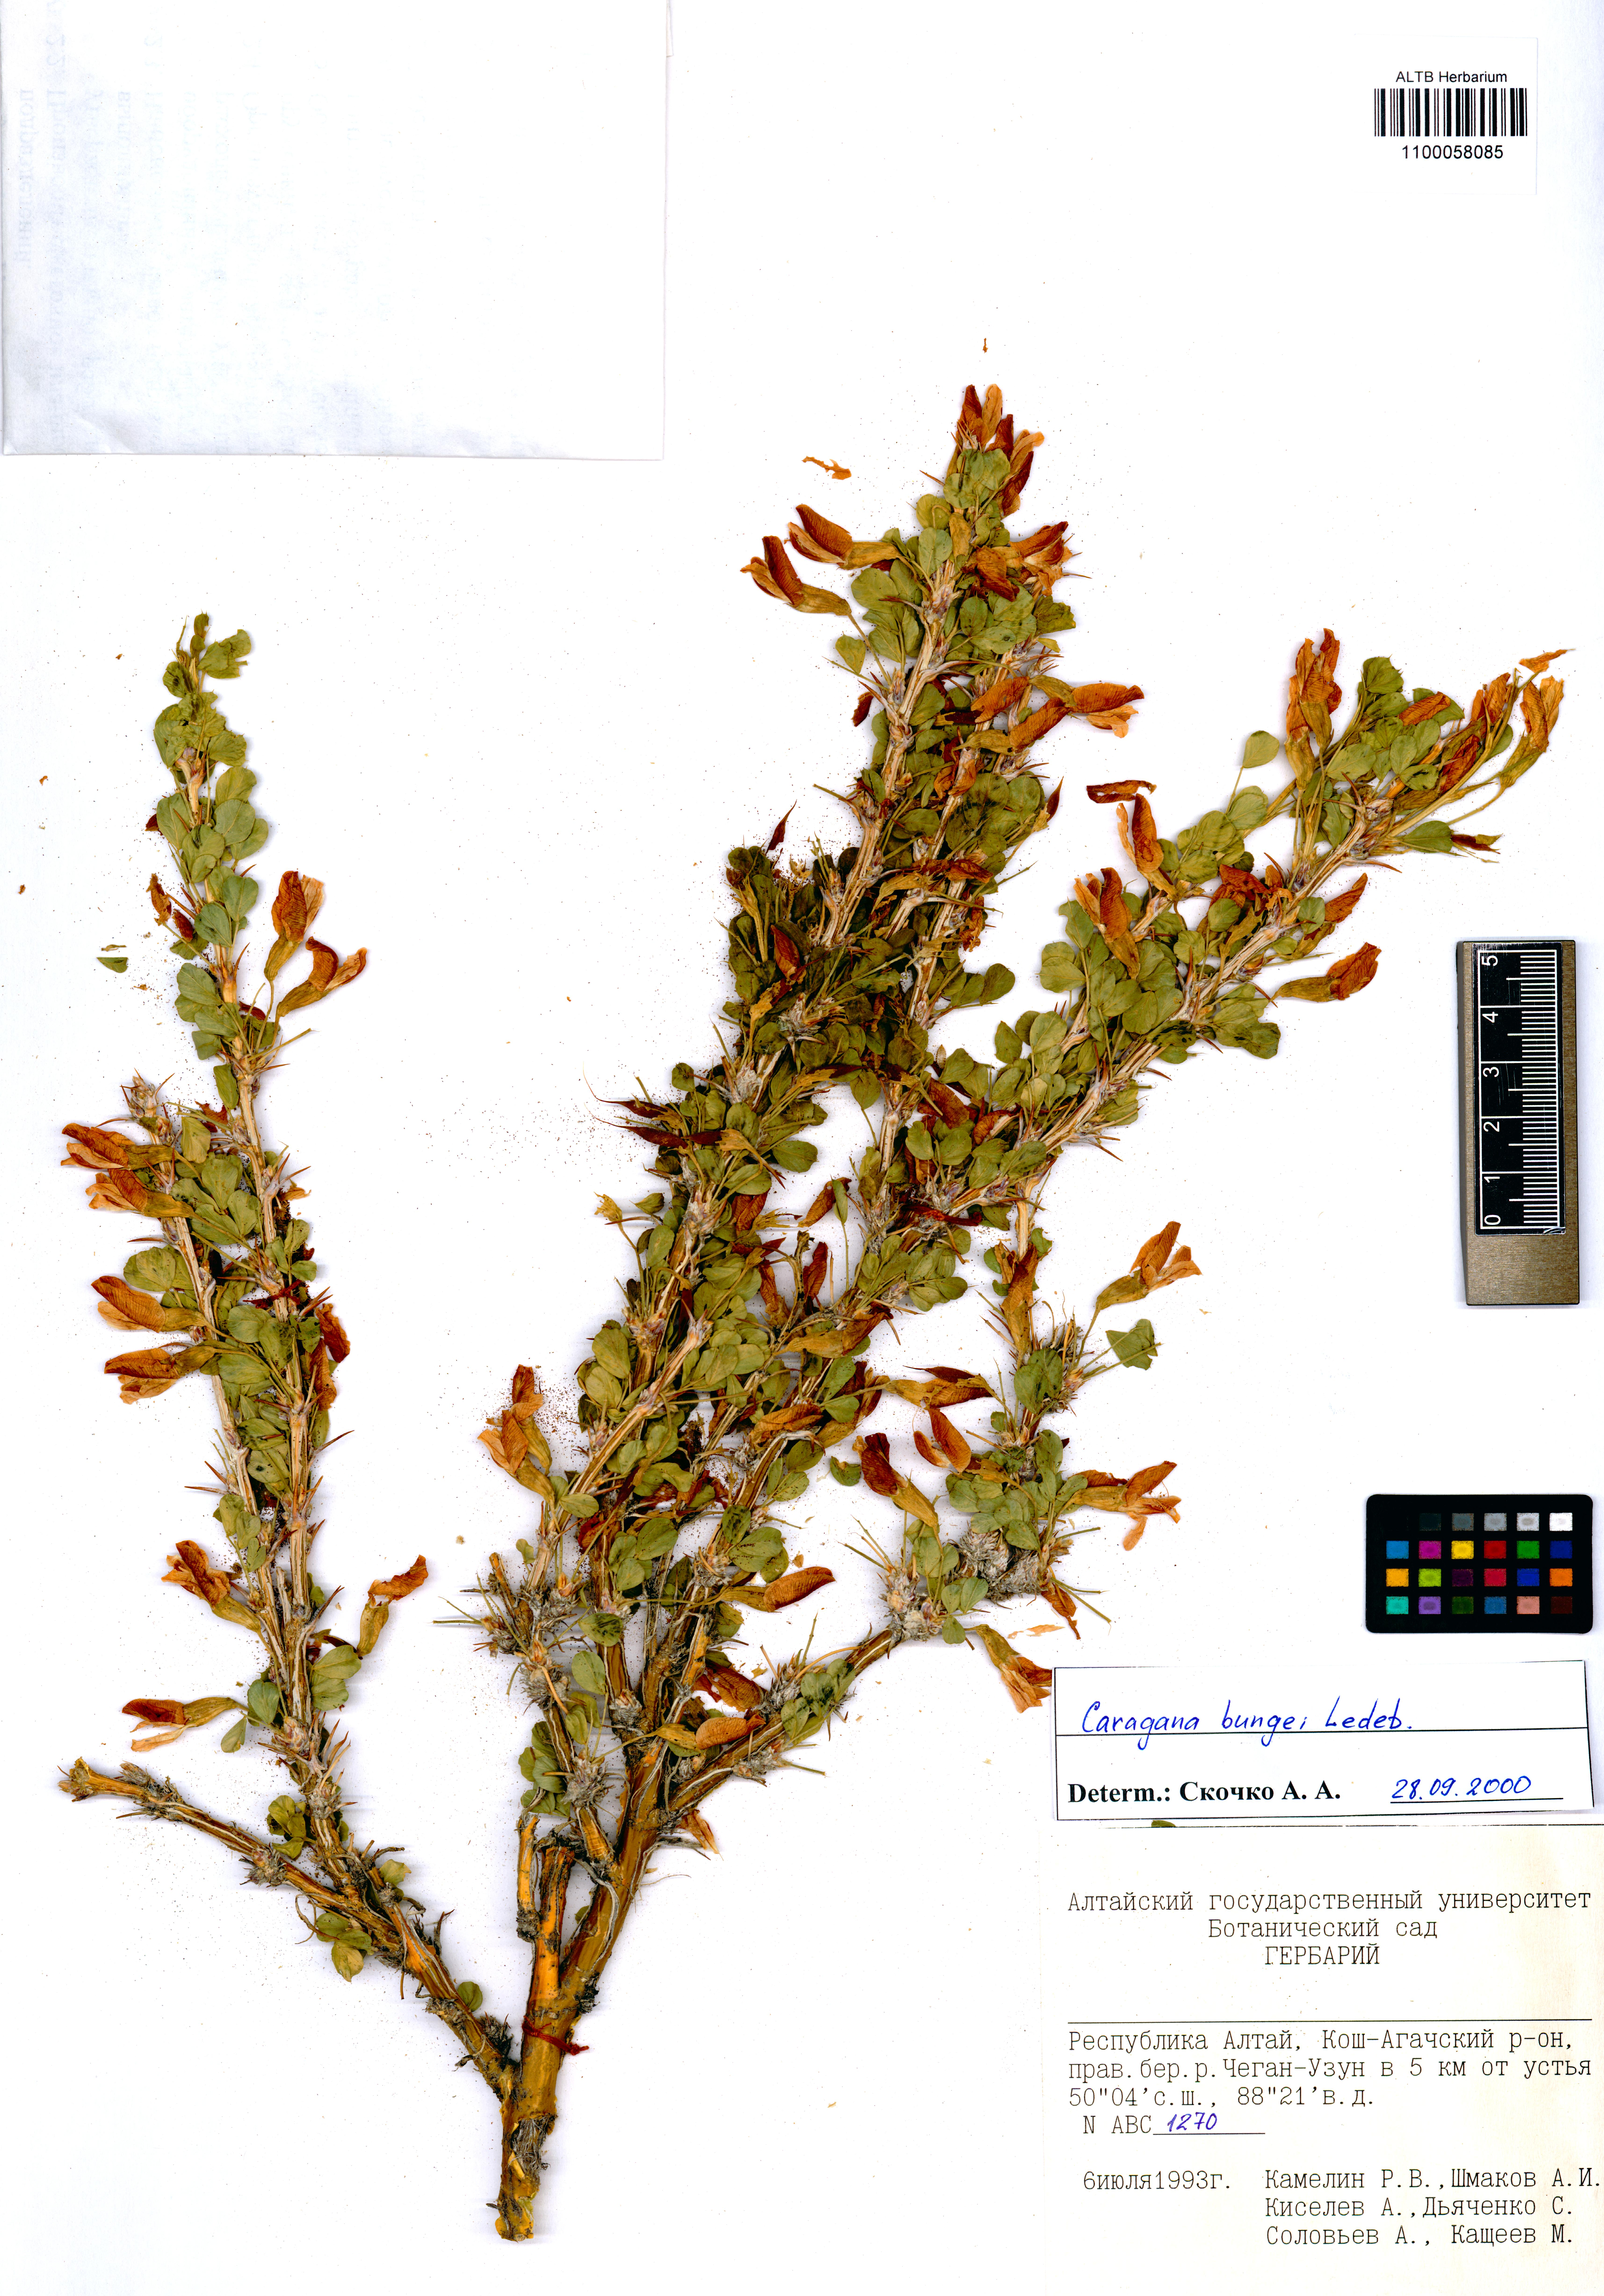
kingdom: Plantae
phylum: Tracheophyta
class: Magnoliopsida
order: Fabales
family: Fabaceae
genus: Caragana
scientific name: Caragana bungei
